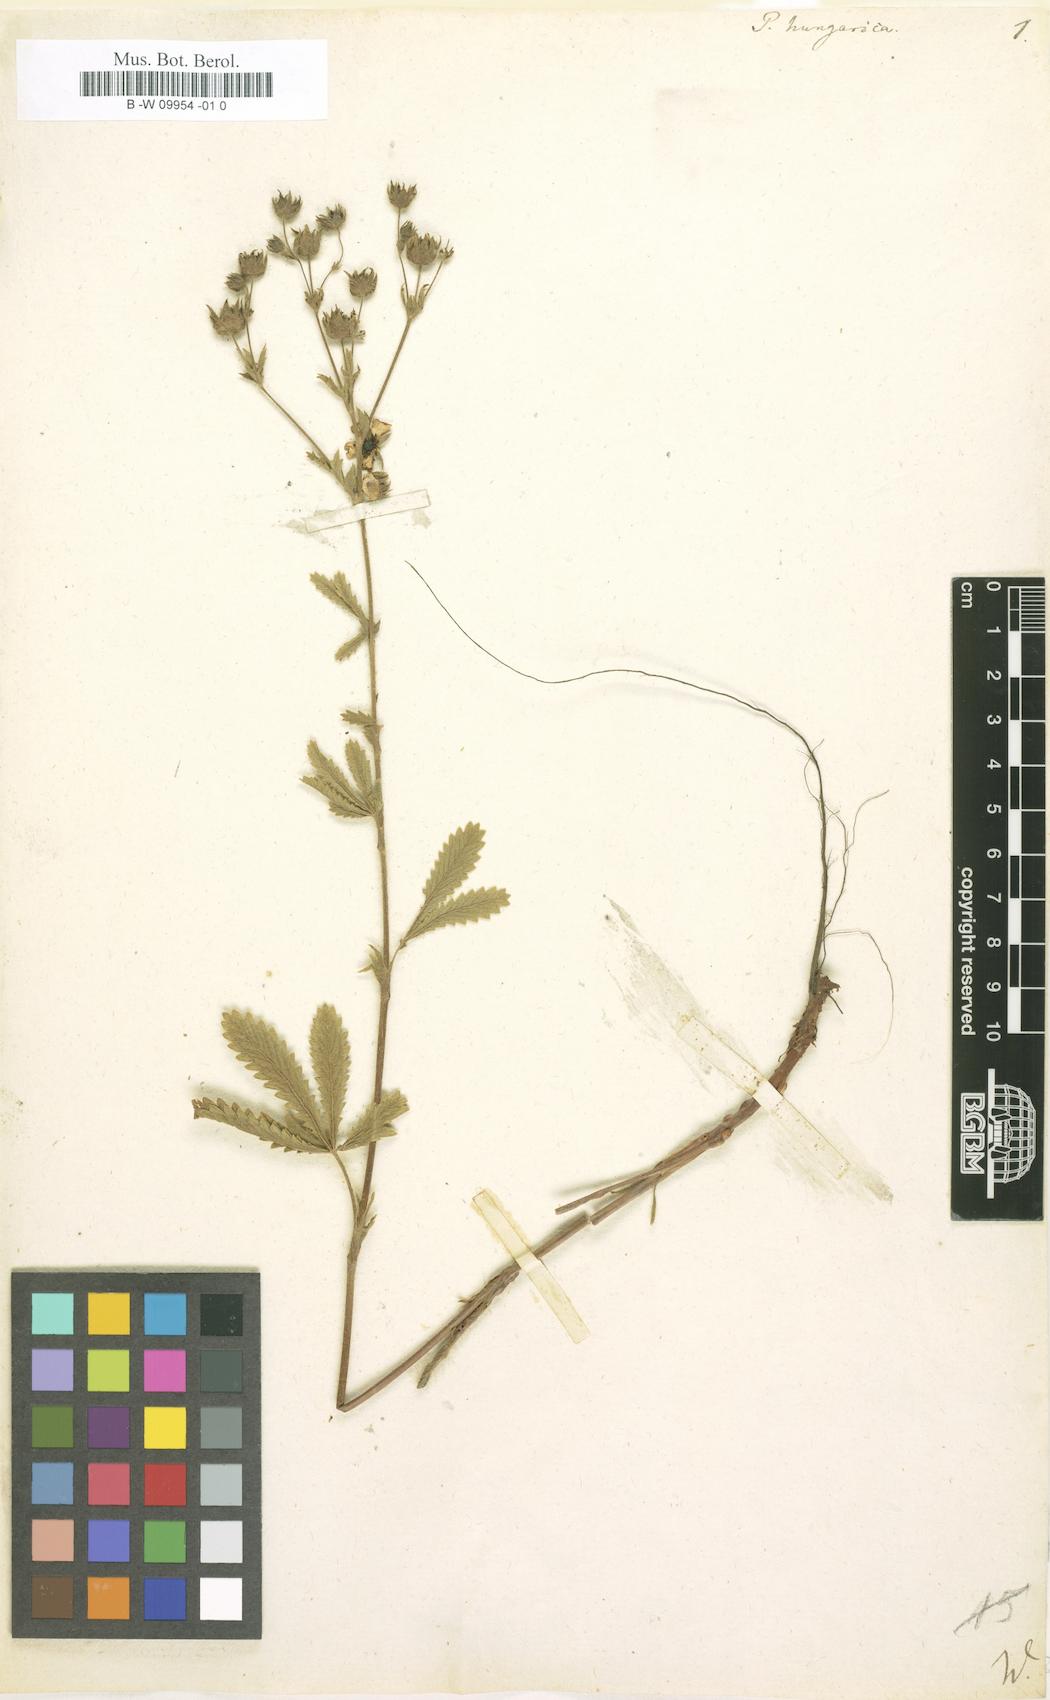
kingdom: Plantae
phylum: Tracheophyta
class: Magnoliopsida
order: Rosales
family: Rosaceae
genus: Potentilla
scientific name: Potentilla inclinata
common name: Grey cinquefoil
